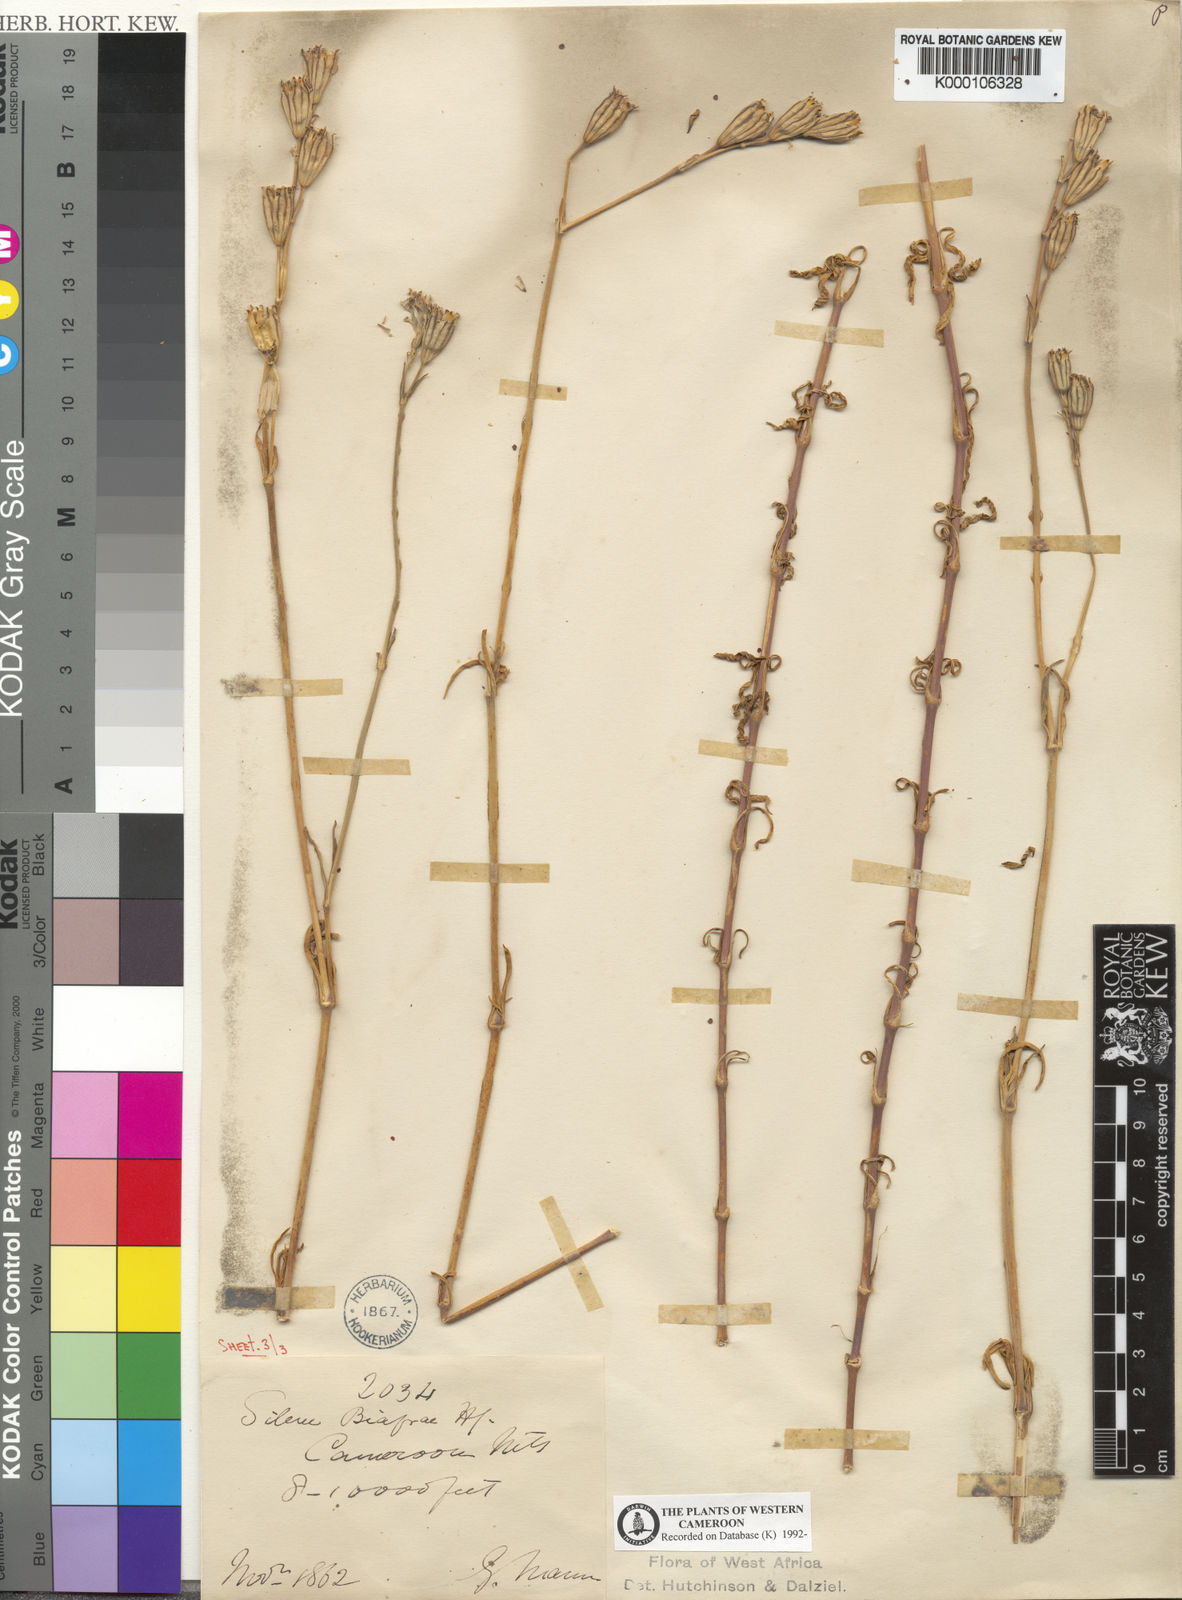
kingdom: Plantae
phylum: Tracheophyta
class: Magnoliopsida
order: Caryophyllales
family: Caryophyllaceae
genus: Silene
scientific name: Silene biafrae
